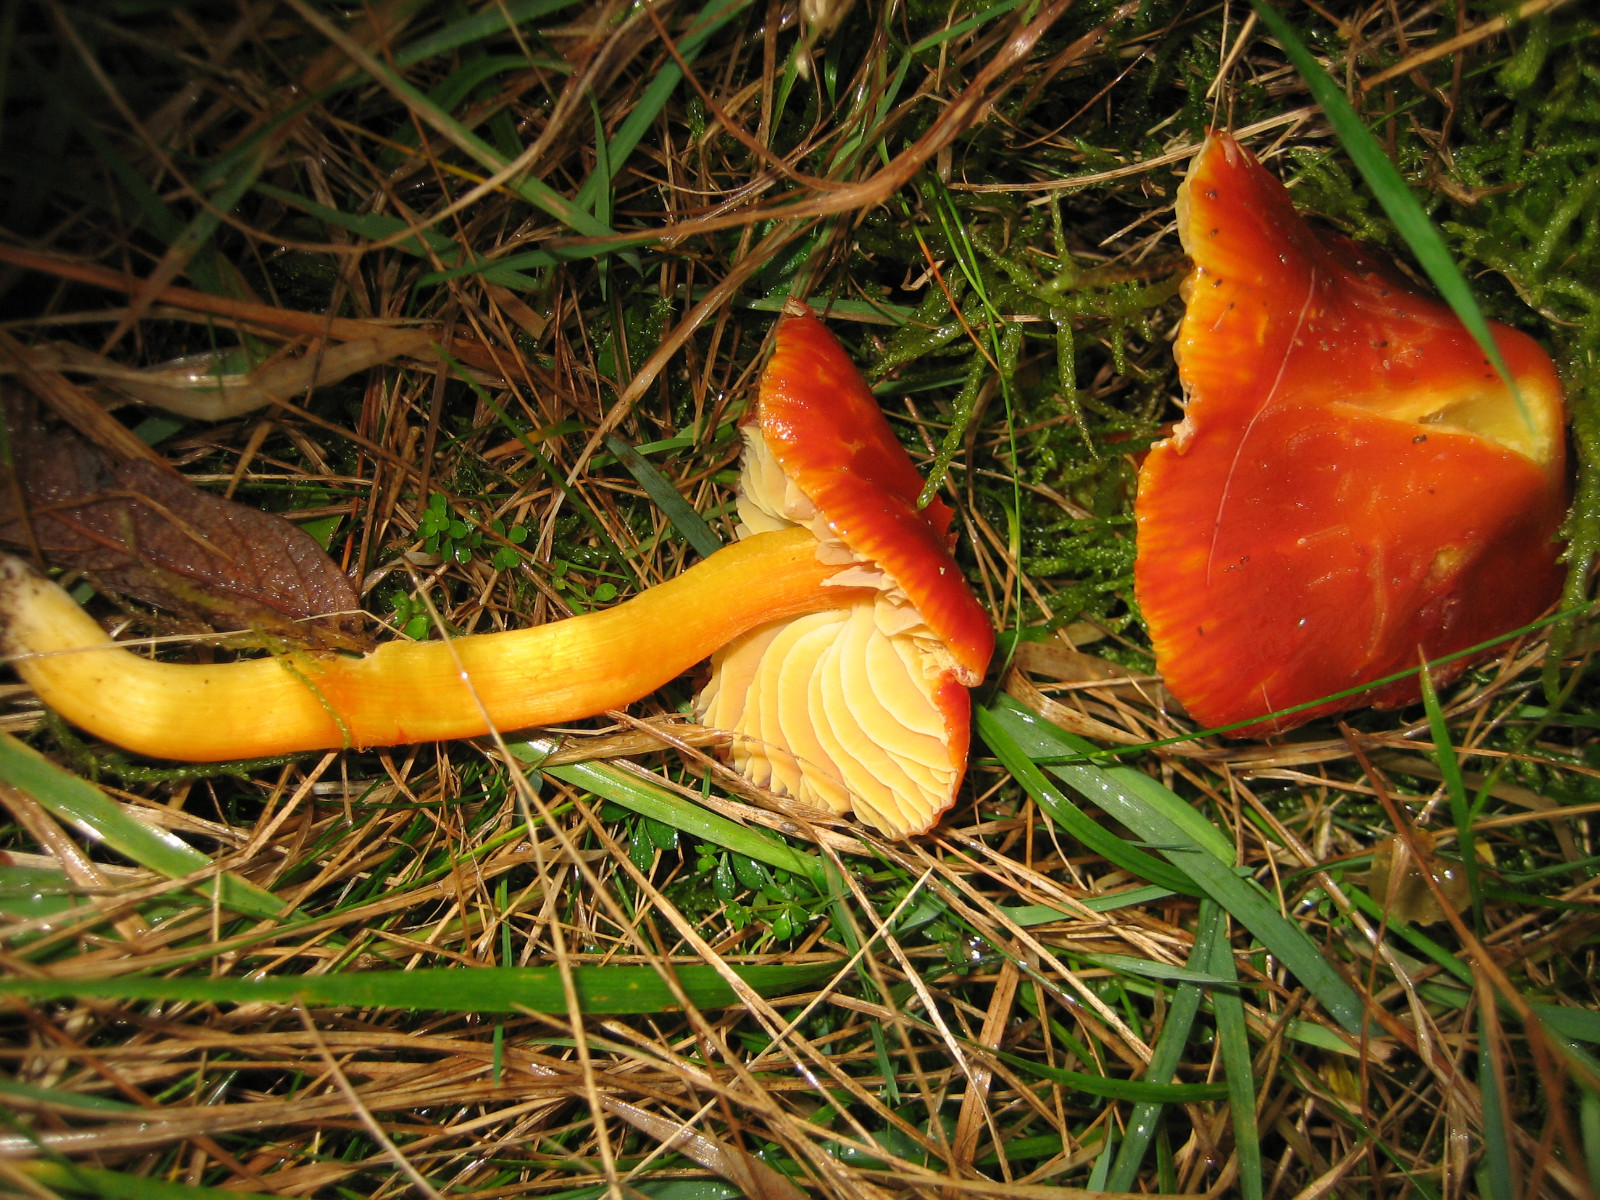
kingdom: Fungi
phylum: Basidiomycota
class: Agaricomycetes
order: Agaricales
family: Hygrophoraceae
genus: Hygrocybe
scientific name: Hygrocybe punicea
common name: skarlagen-vokshat
